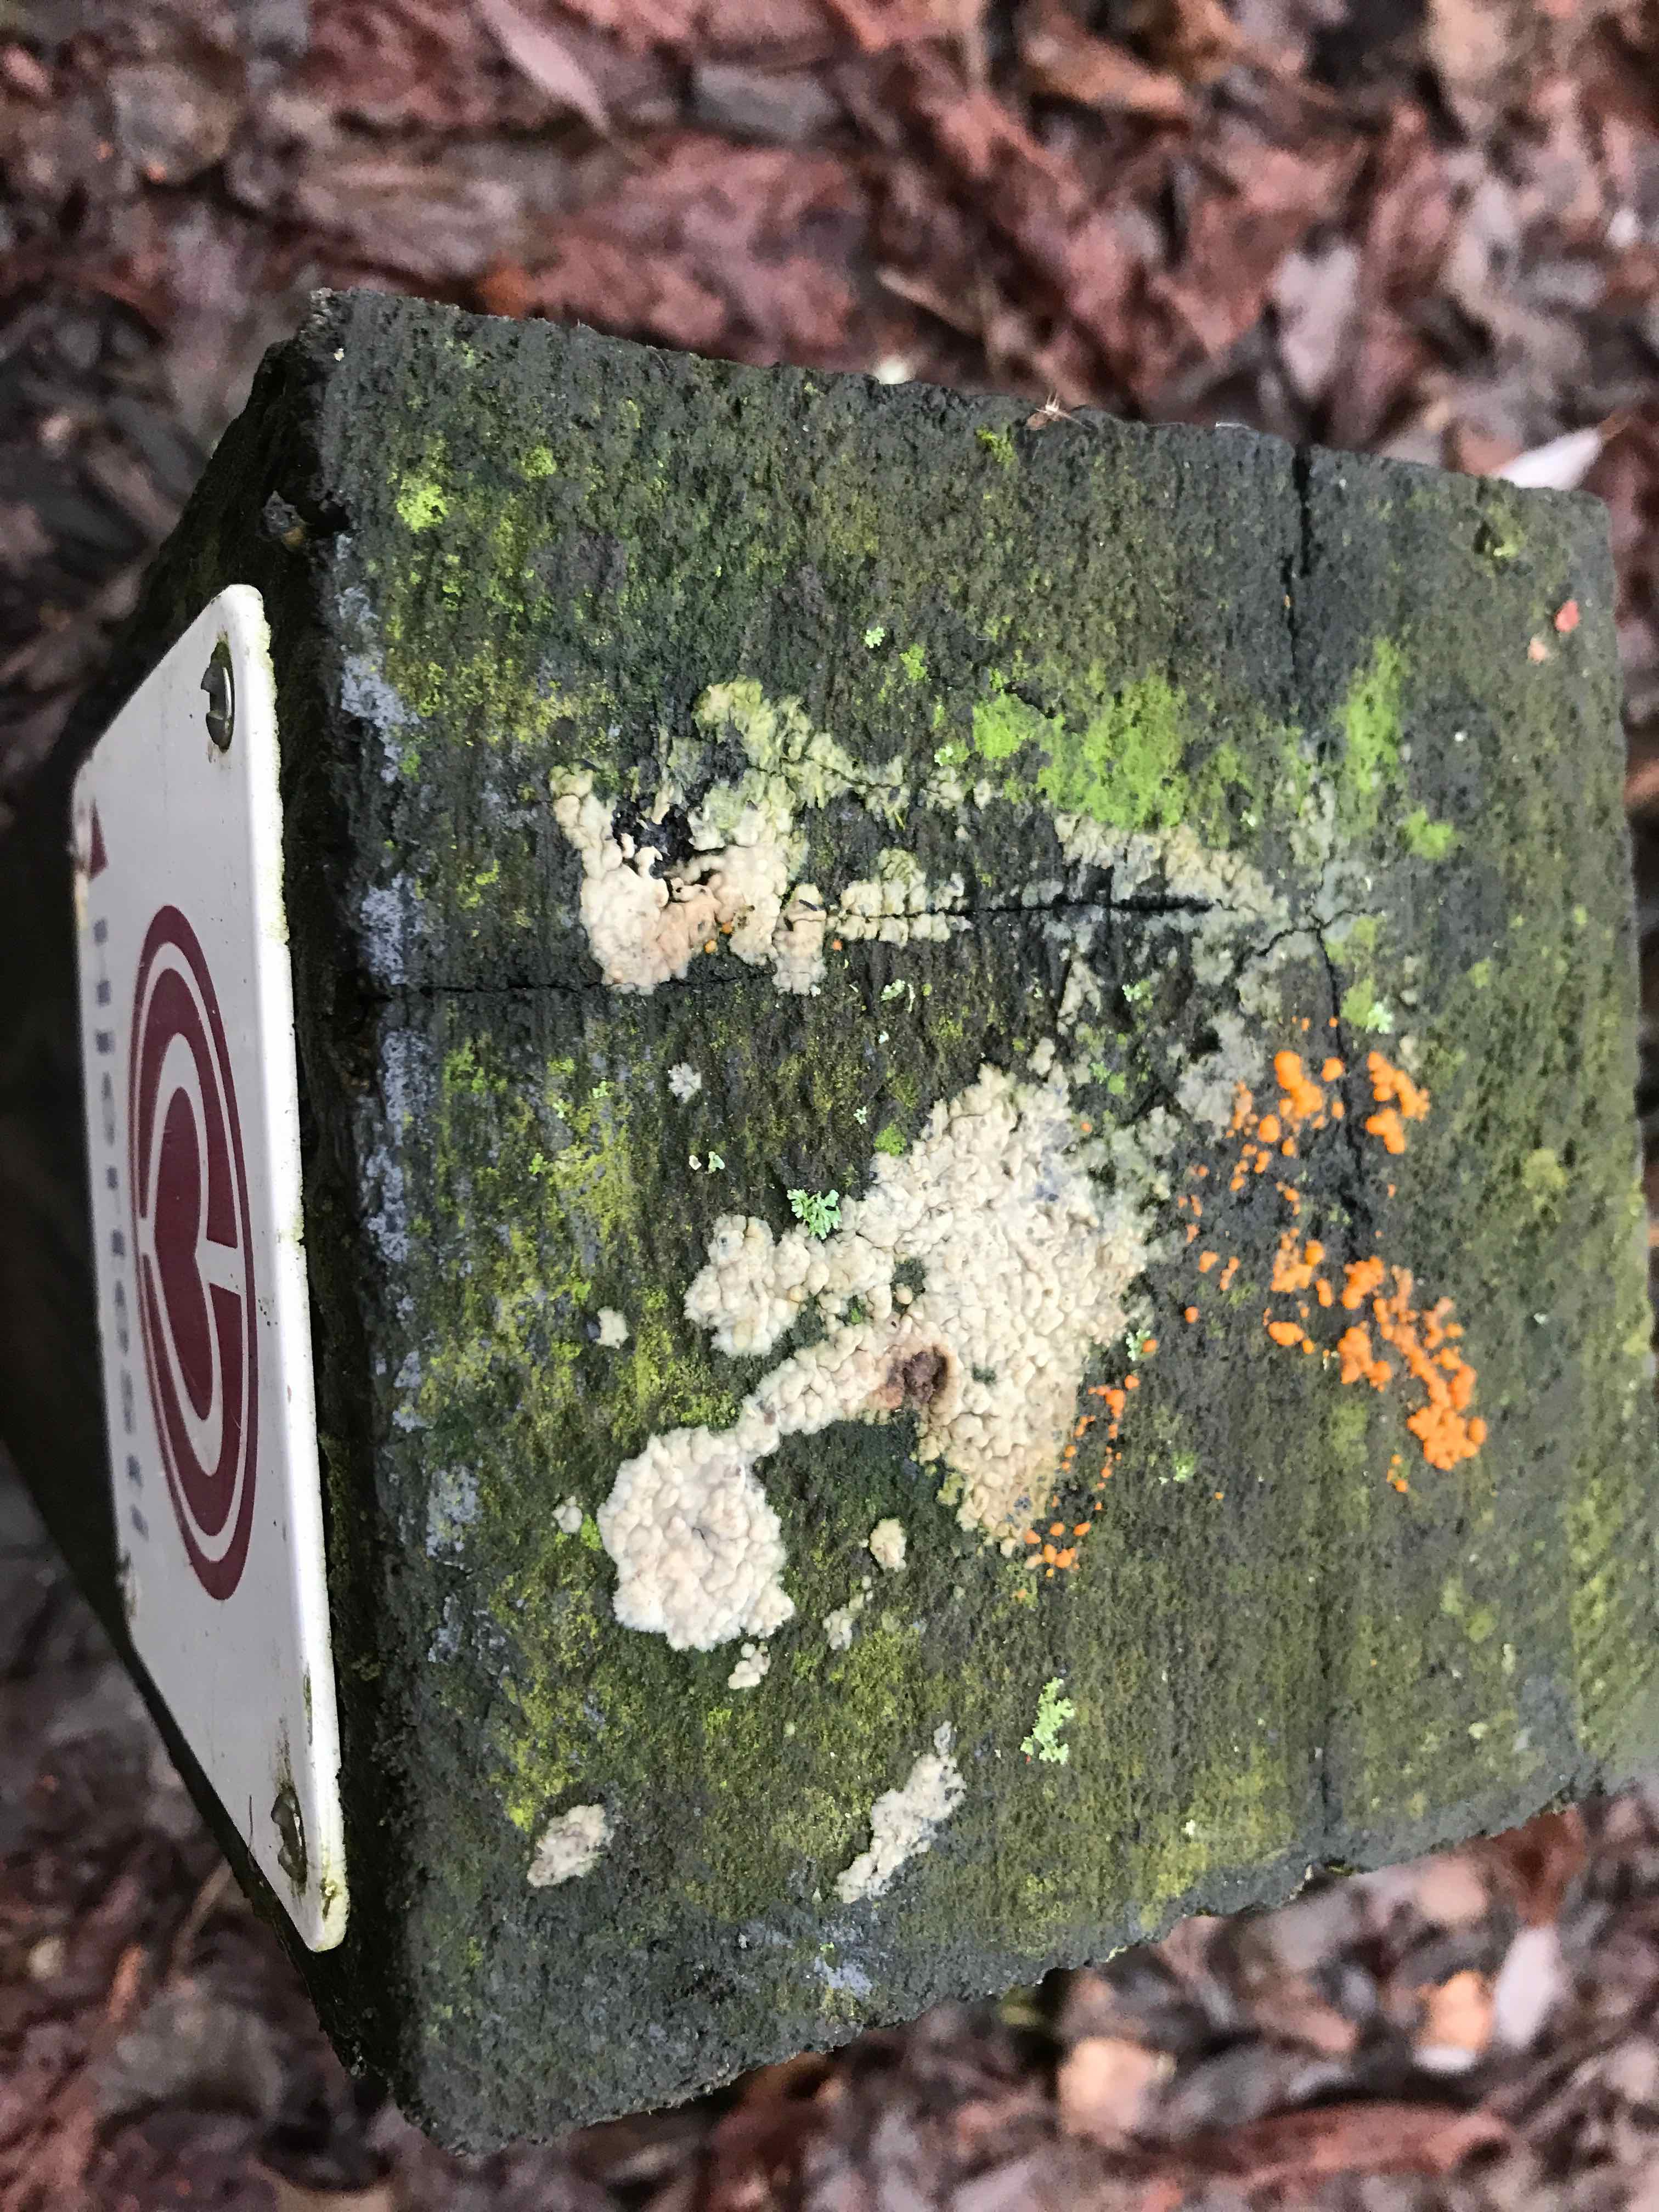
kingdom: Fungi
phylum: Basidiomycota
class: Dacrymycetes
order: Dacrymycetales
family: Dacrymycetaceae
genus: Dacrymyces
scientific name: Dacrymyces stillatus
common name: almindelig tåresvamp
